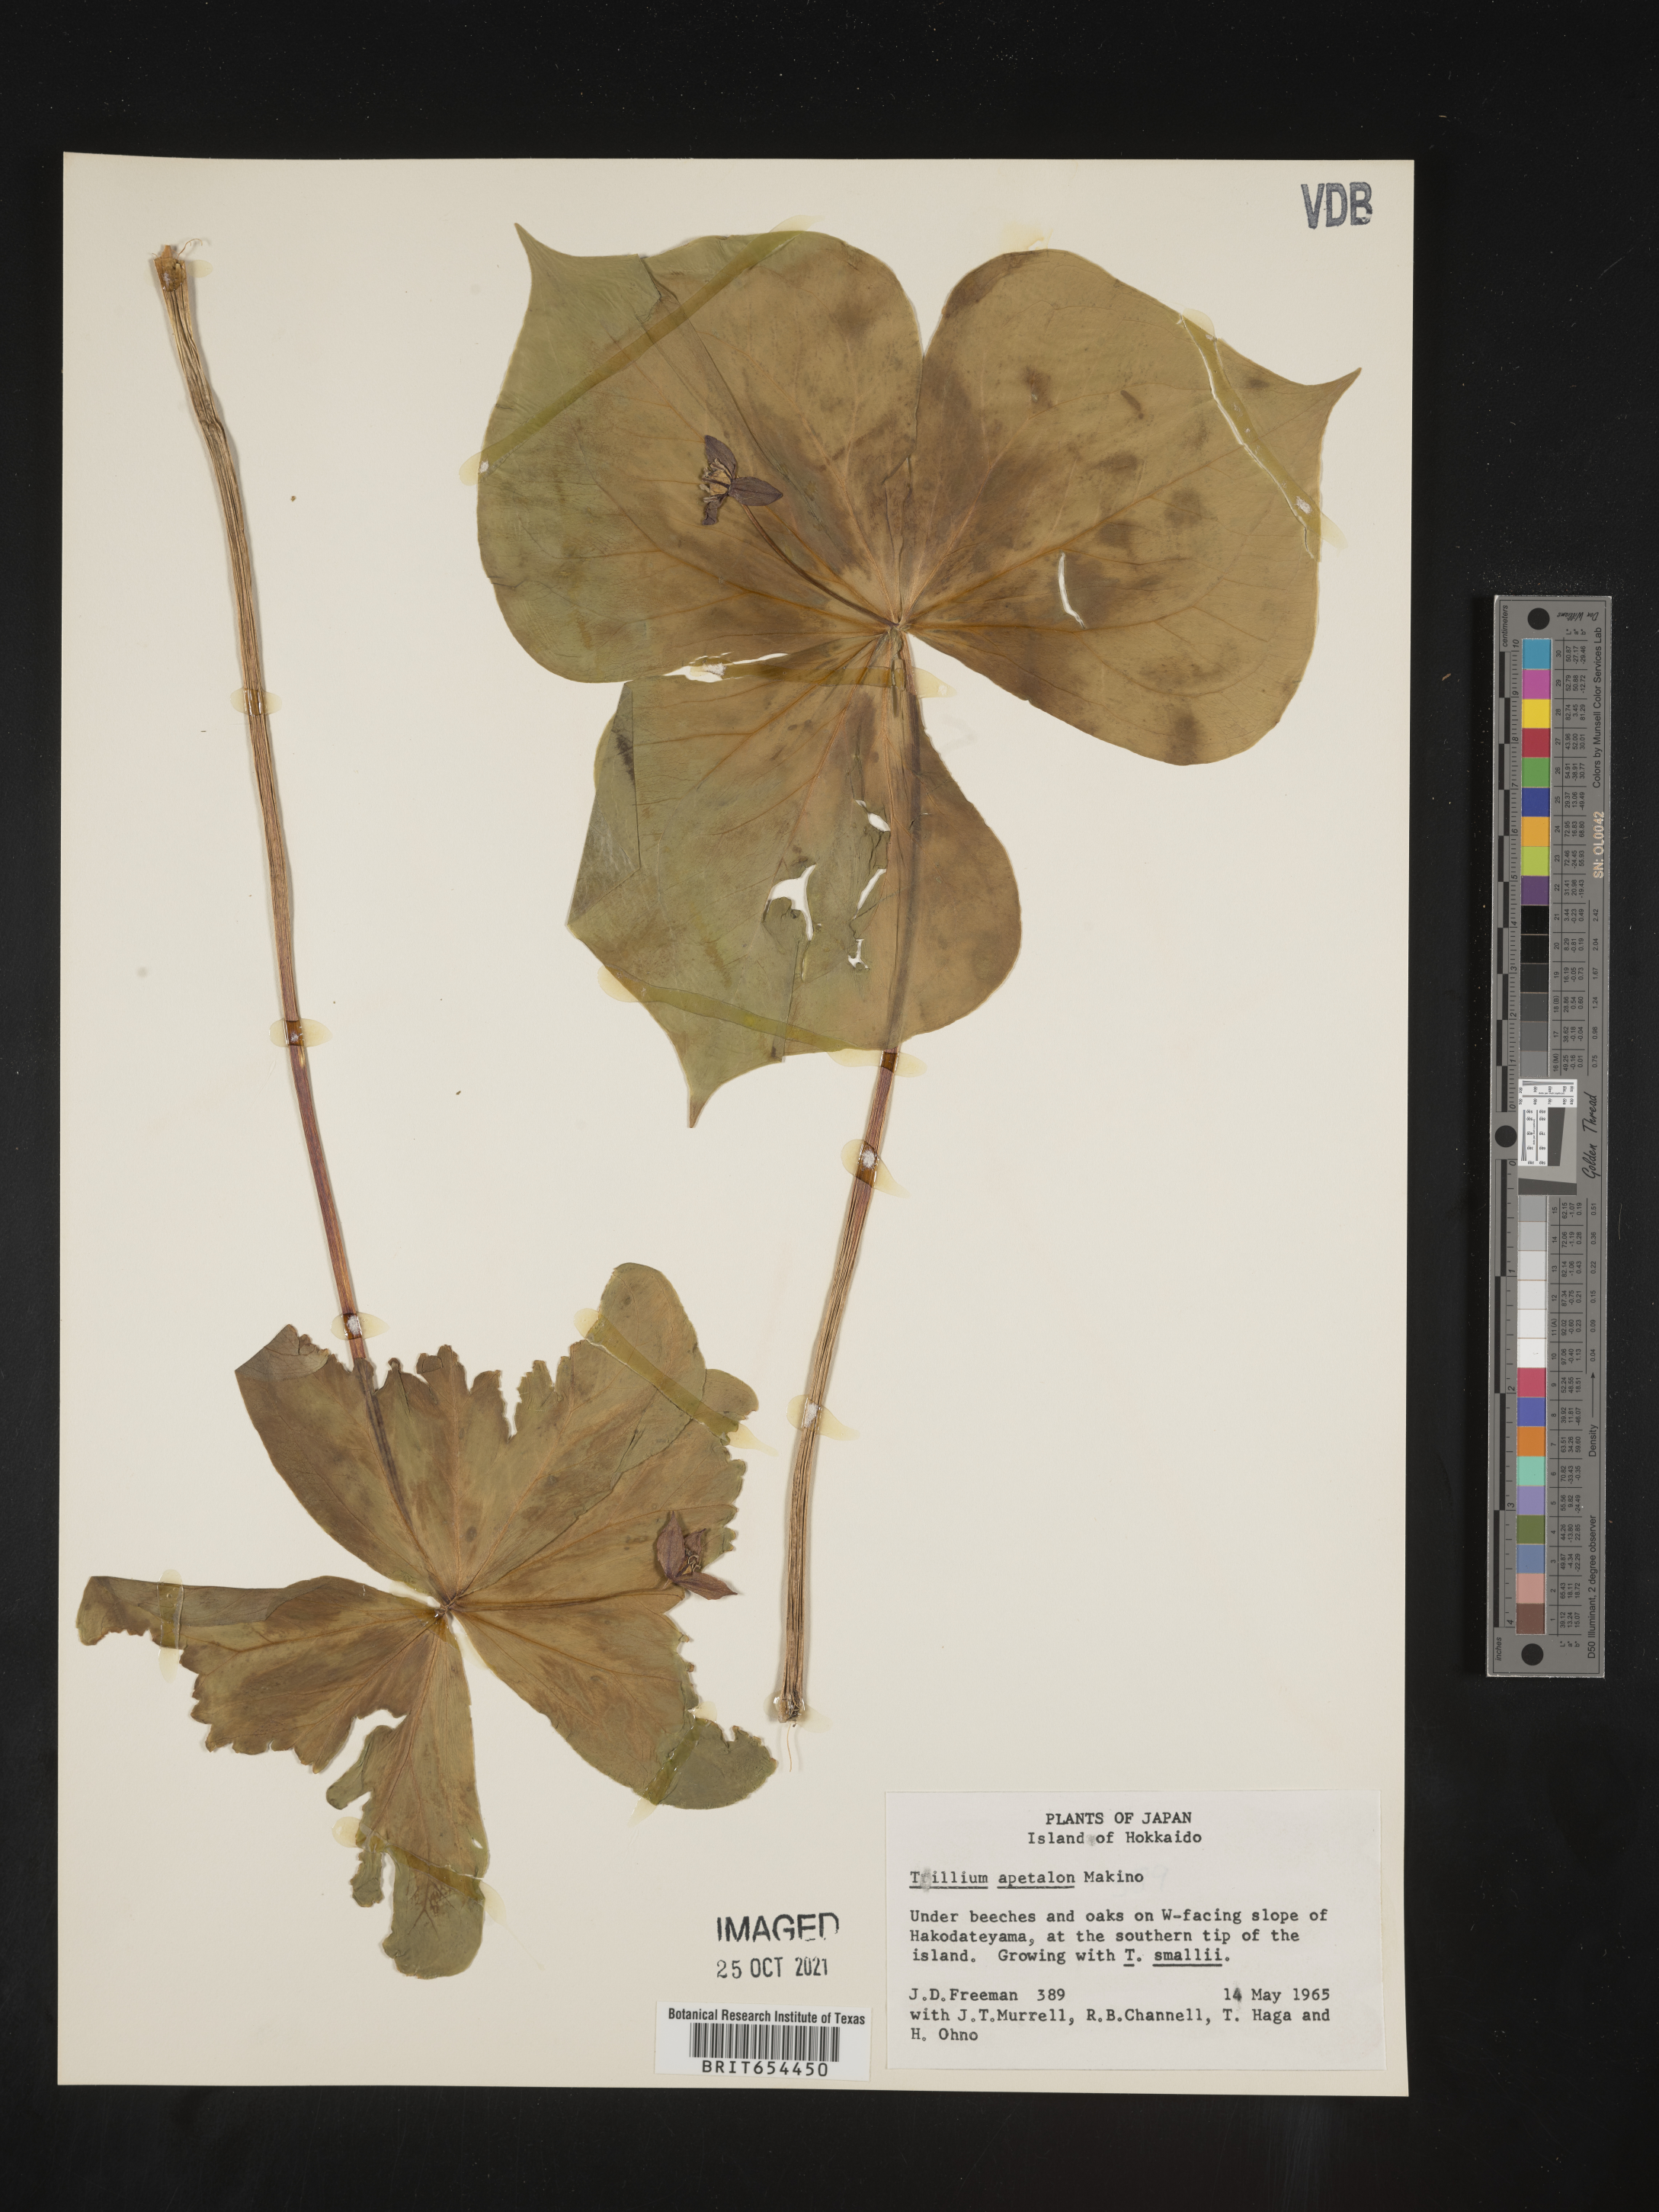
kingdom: Plantae
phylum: Tracheophyta
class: Liliopsida
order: Liliales
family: Melanthiaceae
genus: Trillium
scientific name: Trillium
